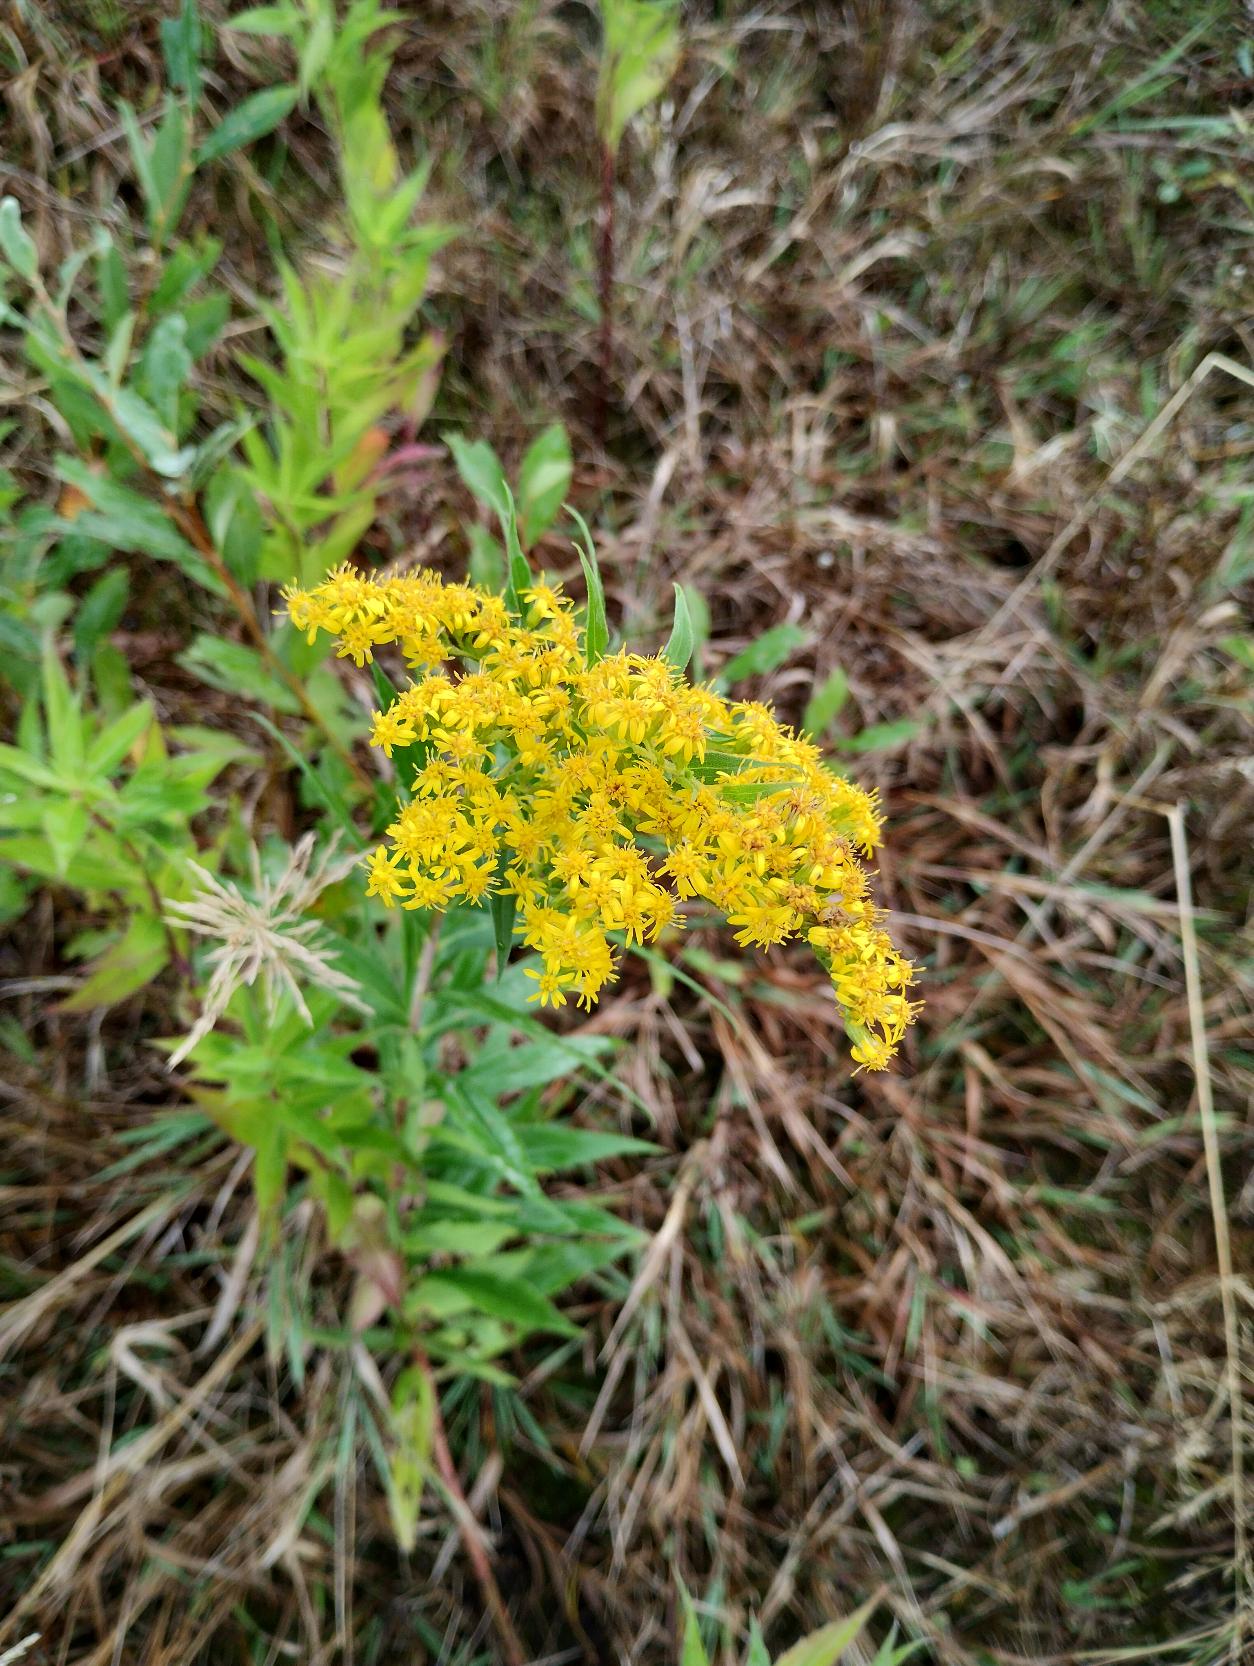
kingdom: Plantae
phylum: Tracheophyta
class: Magnoliopsida
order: Asterales
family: Asteraceae
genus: Solidago
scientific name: Solidago
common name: Gyldenrisslægten
